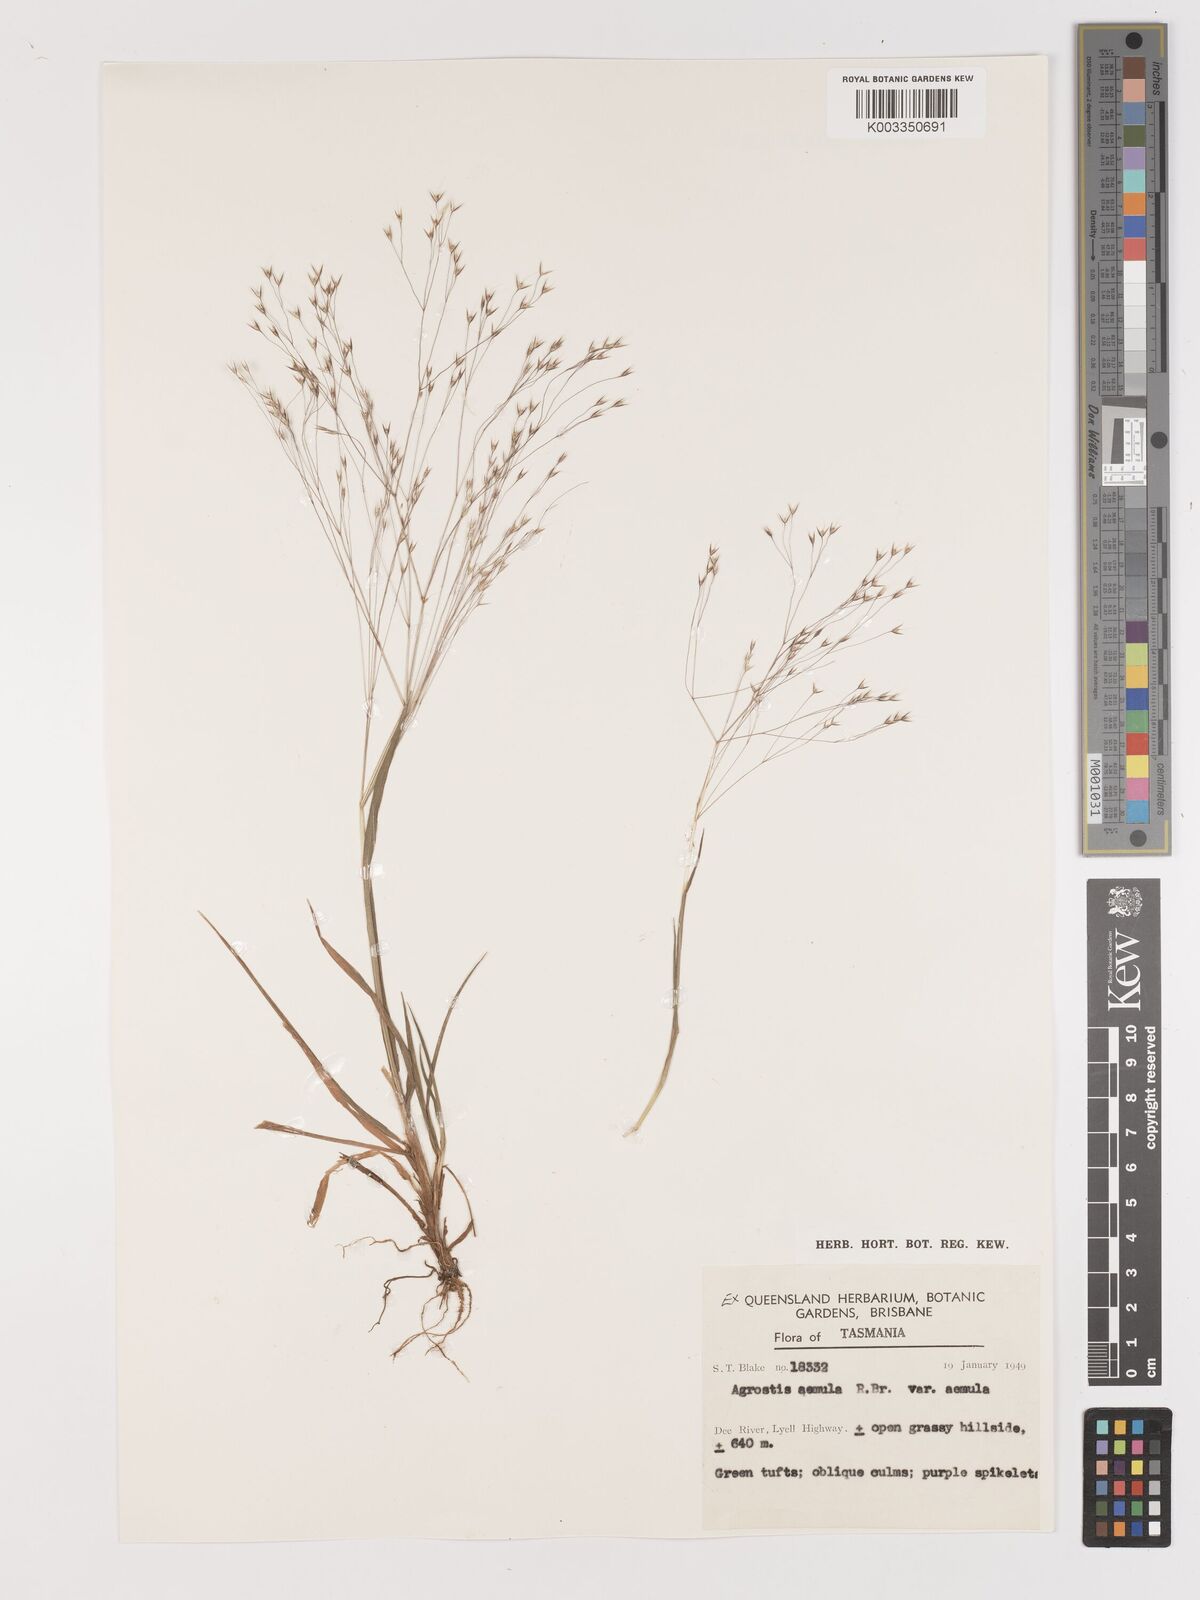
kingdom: Plantae
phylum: Tracheophyta
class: Liliopsida
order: Poales
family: Poaceae
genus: Lachnagrostis
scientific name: Lachnagrostis aemula
